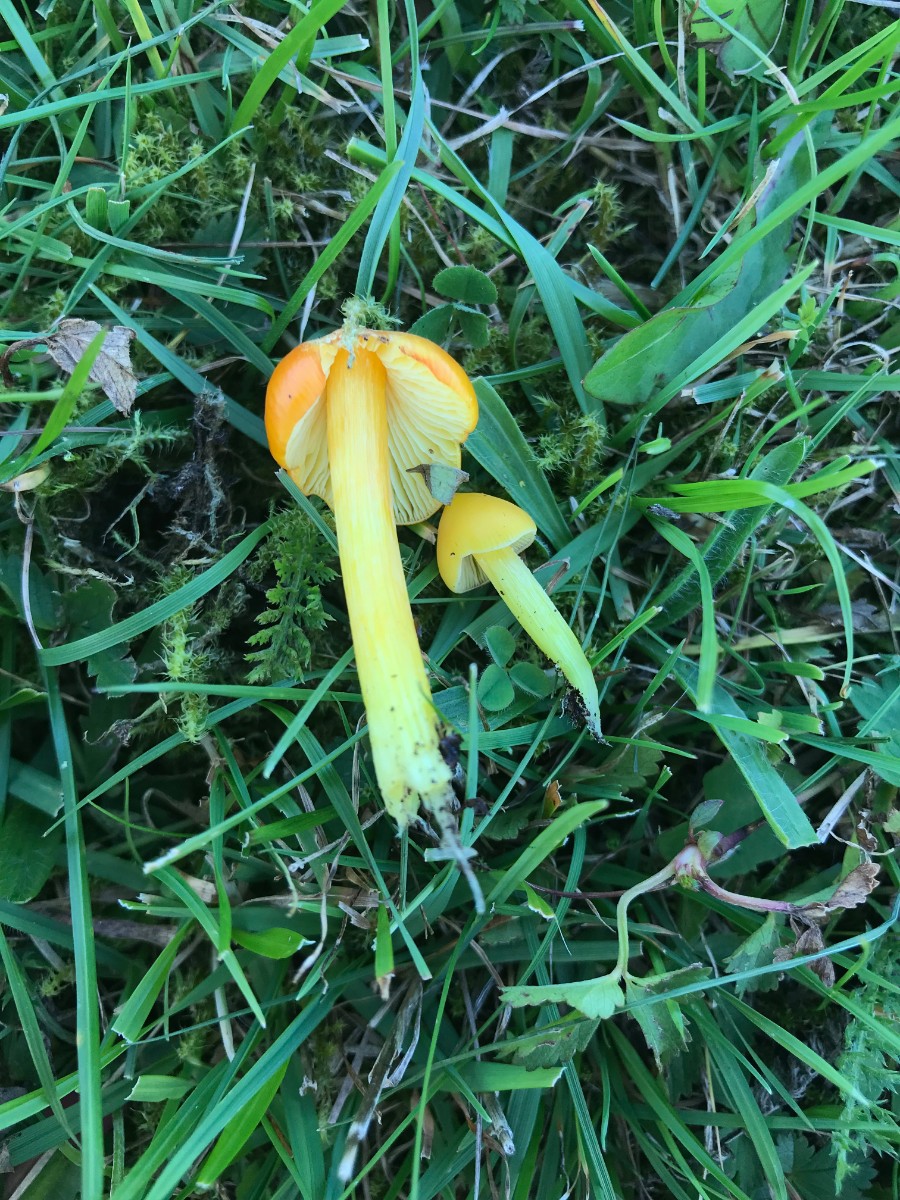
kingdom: Fungi
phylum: Basidiomycota
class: Agaricomycetes
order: Agaricales
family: Hygrophoraceae
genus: Hygrocybe
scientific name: Hygrocybe acutoconica
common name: spidspuklet vokshat
